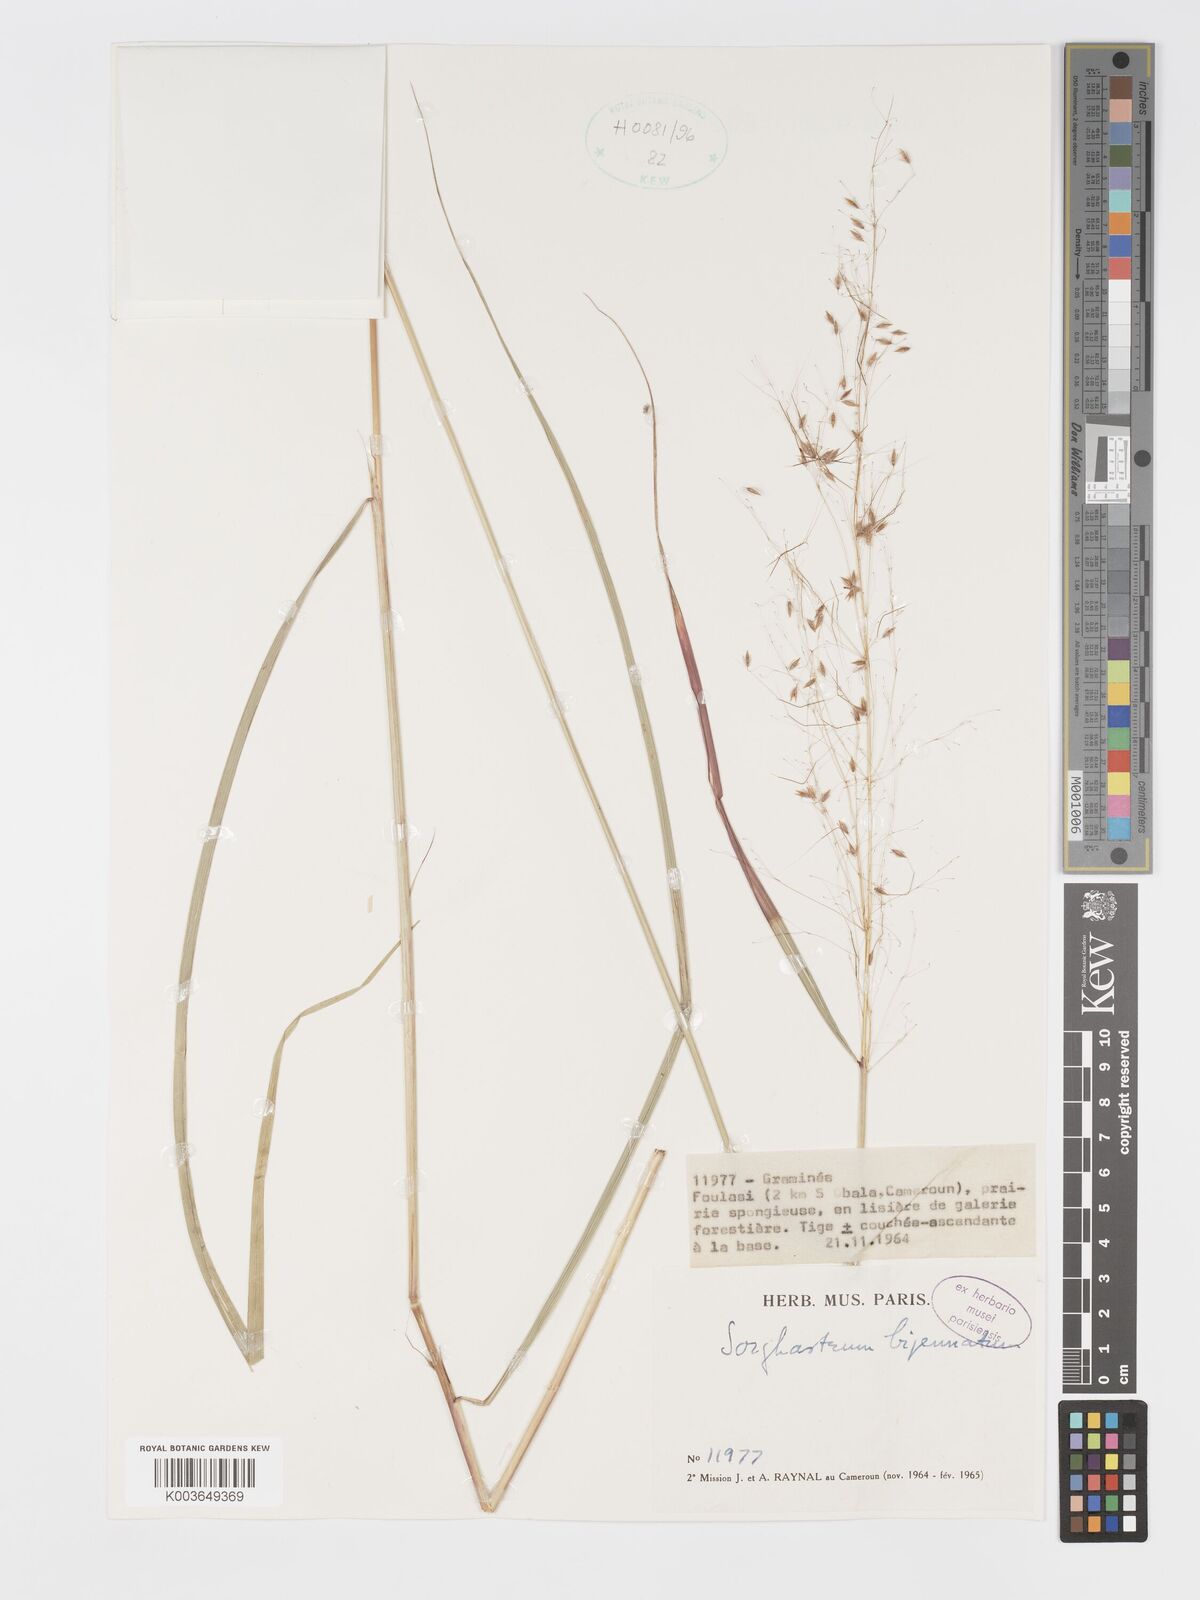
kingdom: Plantae
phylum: Tracheophyta
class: Liliopsida
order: Poales
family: Poaceae
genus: Sorghastrum
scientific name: Sorghastrum incompletum
